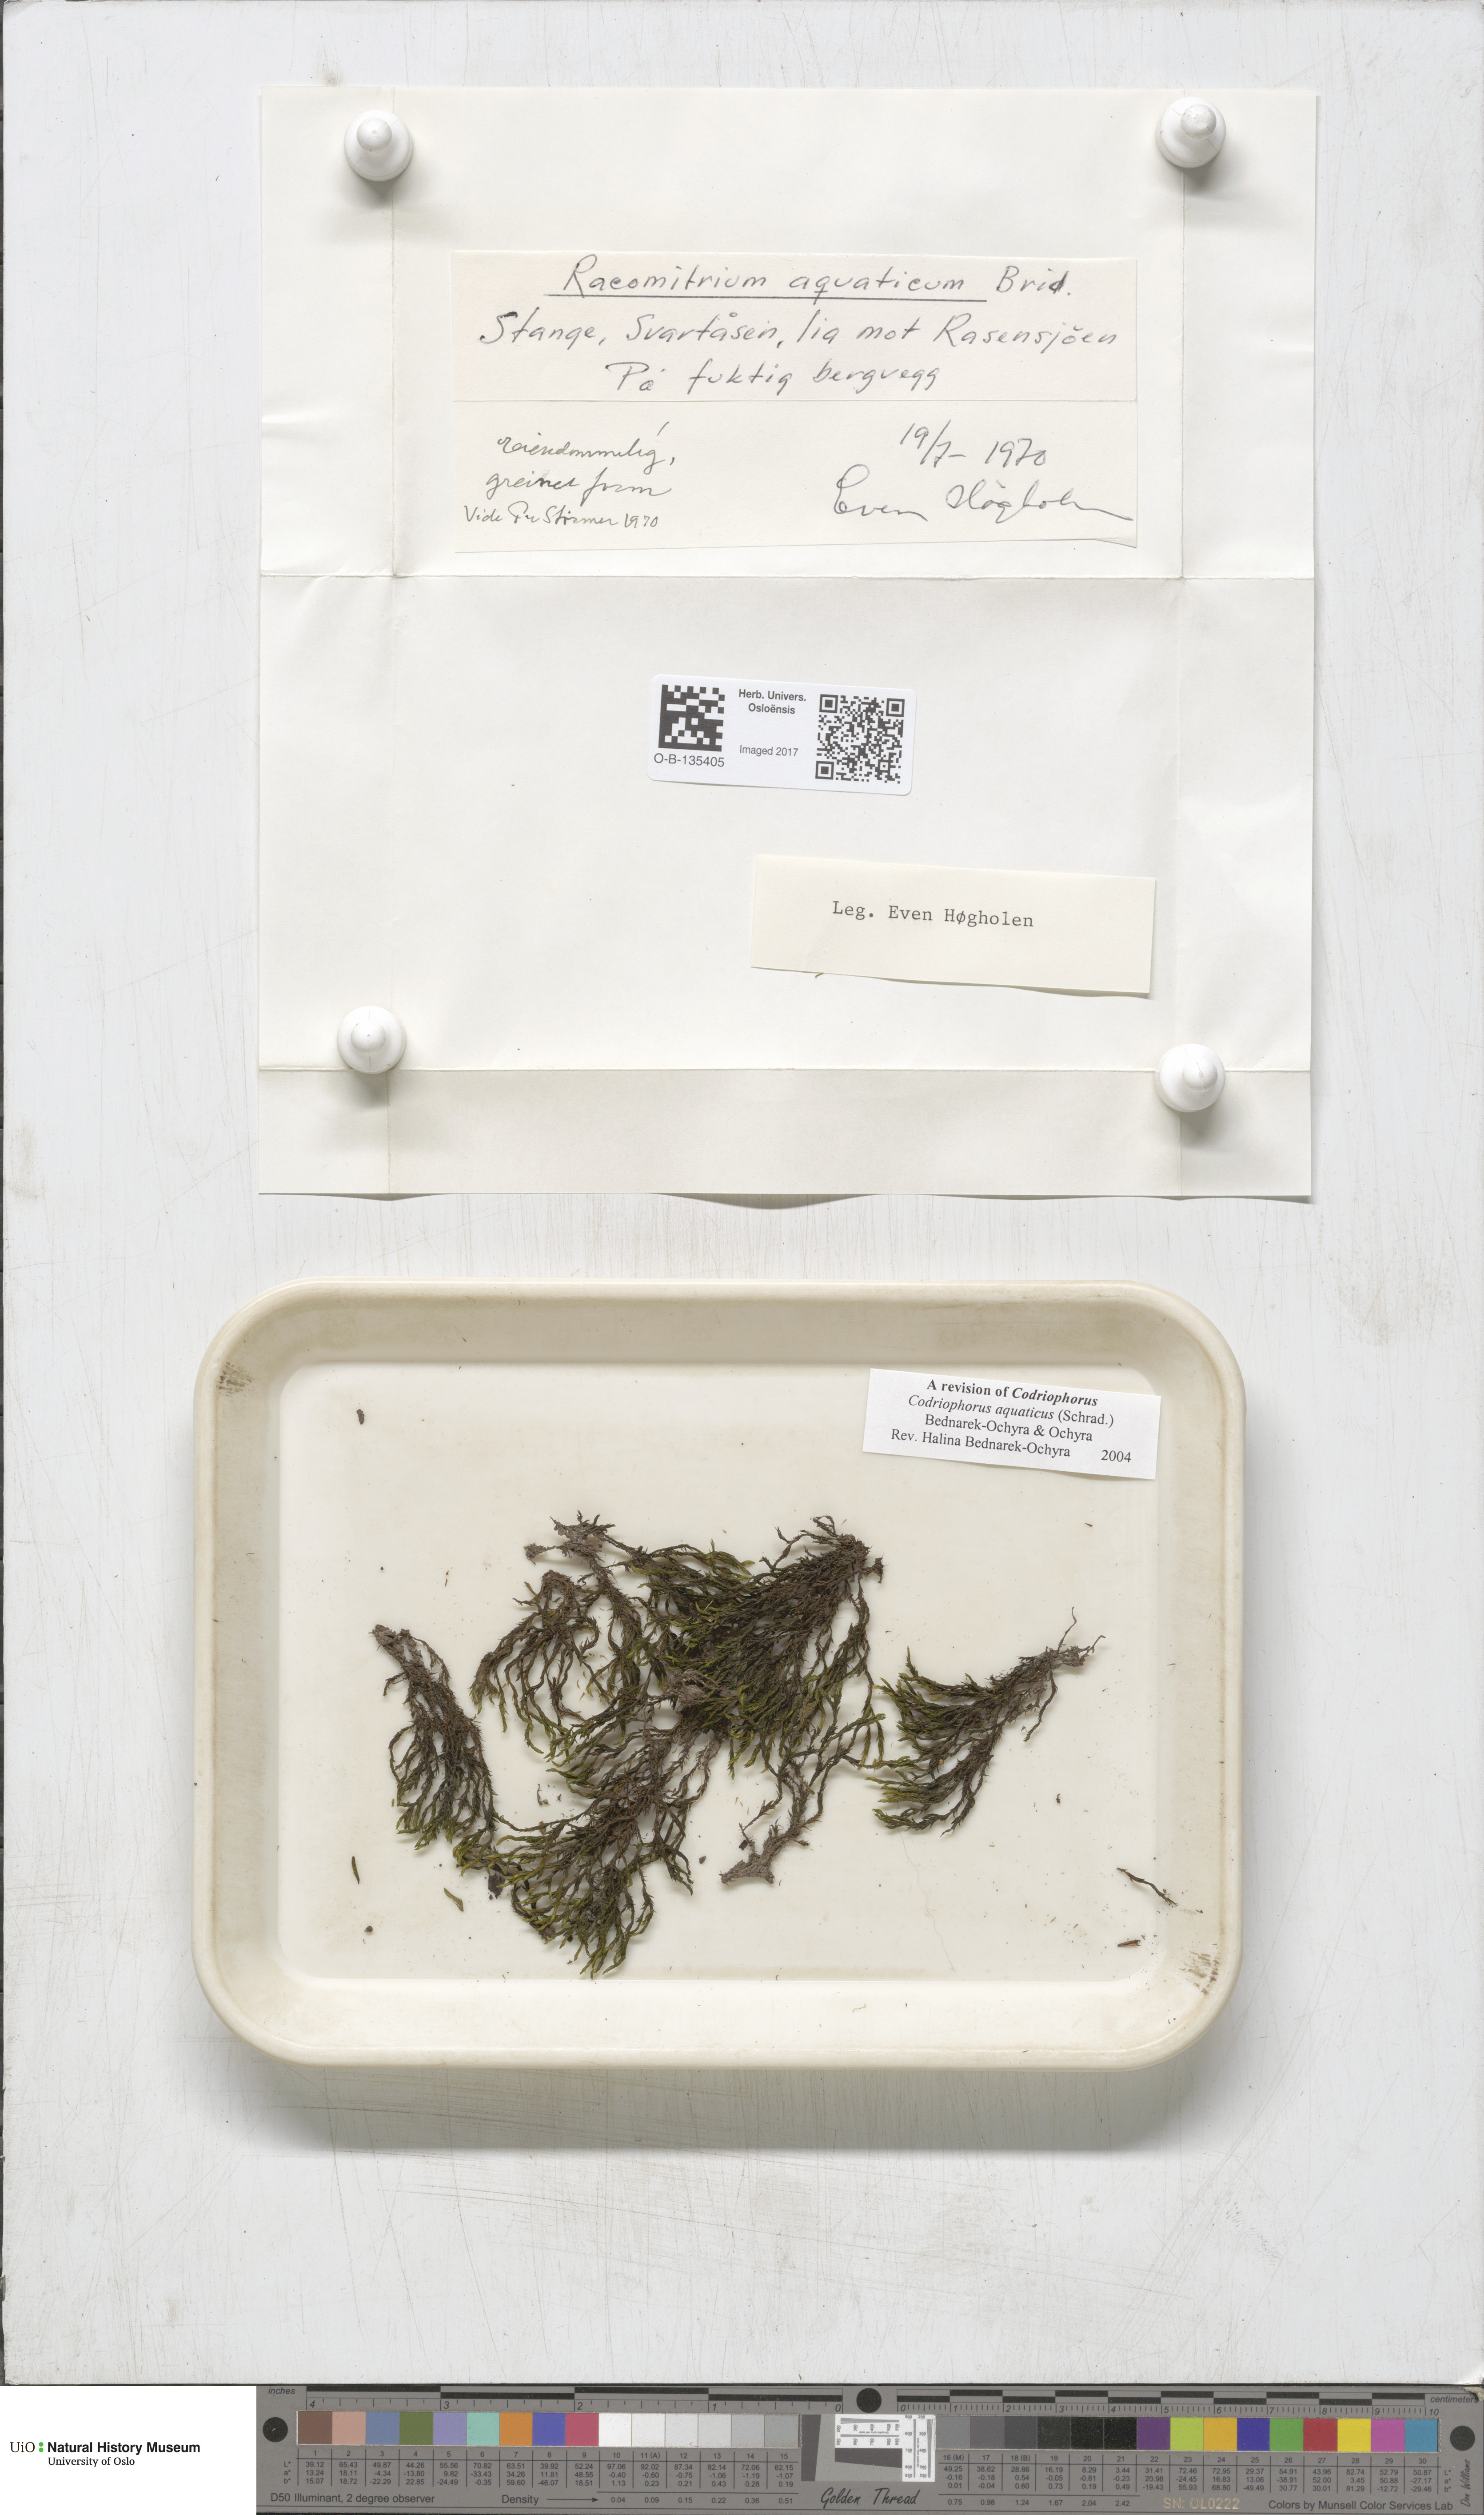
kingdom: Plantae
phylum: Bryophyta
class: Bryopsida
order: Grimmiales
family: Grimmiaceae
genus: Codriophorus
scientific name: Codriophorus aquaticus
